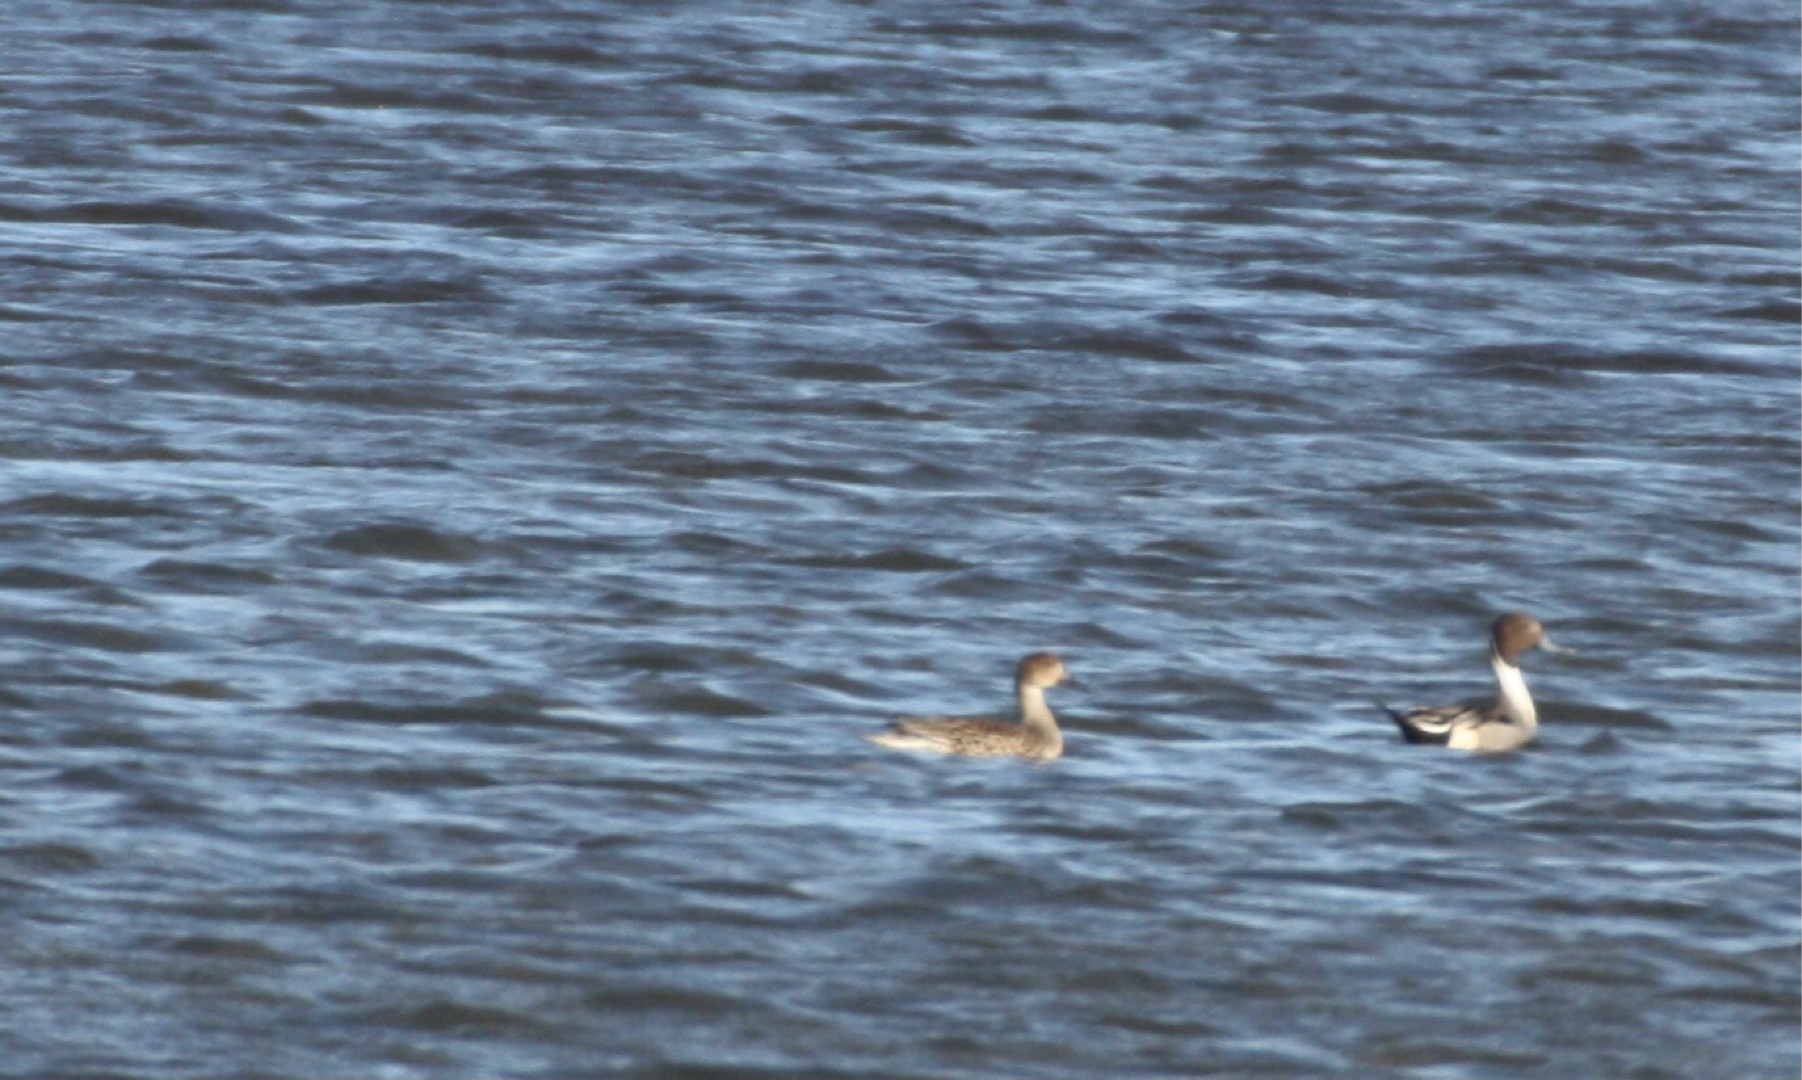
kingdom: Animalia
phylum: Chordata
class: Aves
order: Anseriformes
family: Anatidae
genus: Anas
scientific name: Anas acuta
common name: Spidsand
